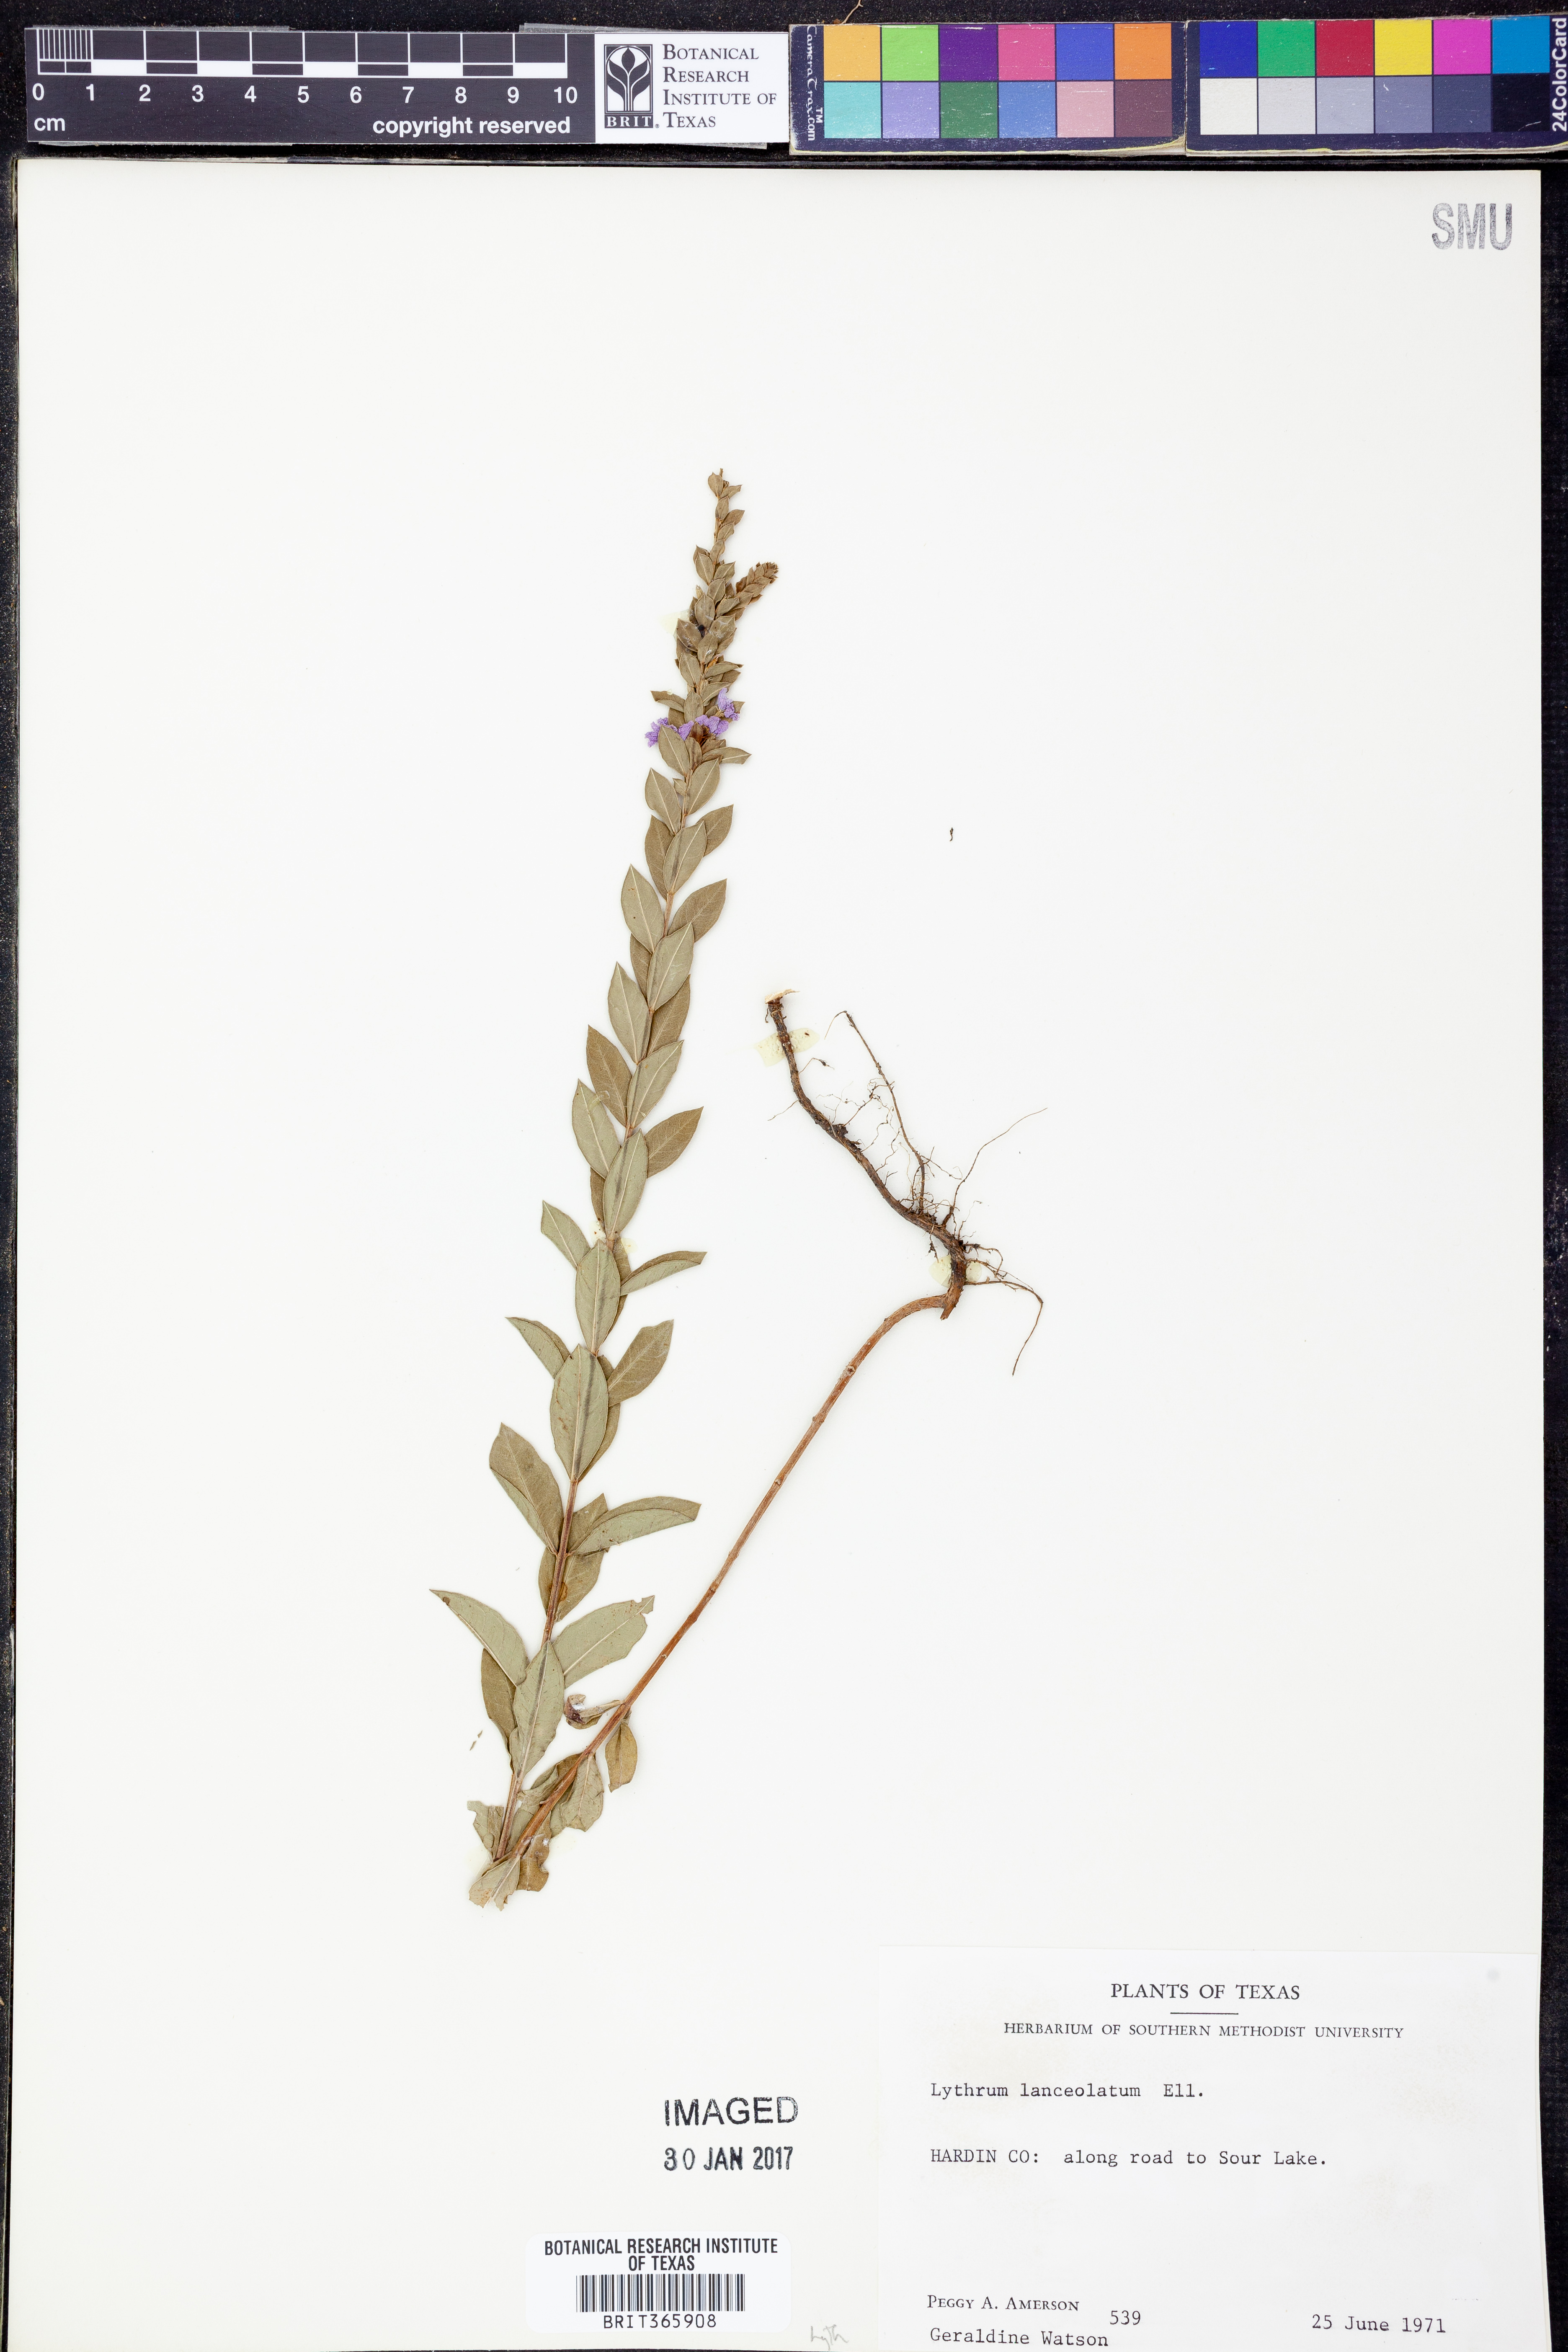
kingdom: Plantae
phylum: Tracheophyta
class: Magnoliopsida
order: Myrtales
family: Lythraceae
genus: Lythrum
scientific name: Lythrum alatum
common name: Winged loosestrife
